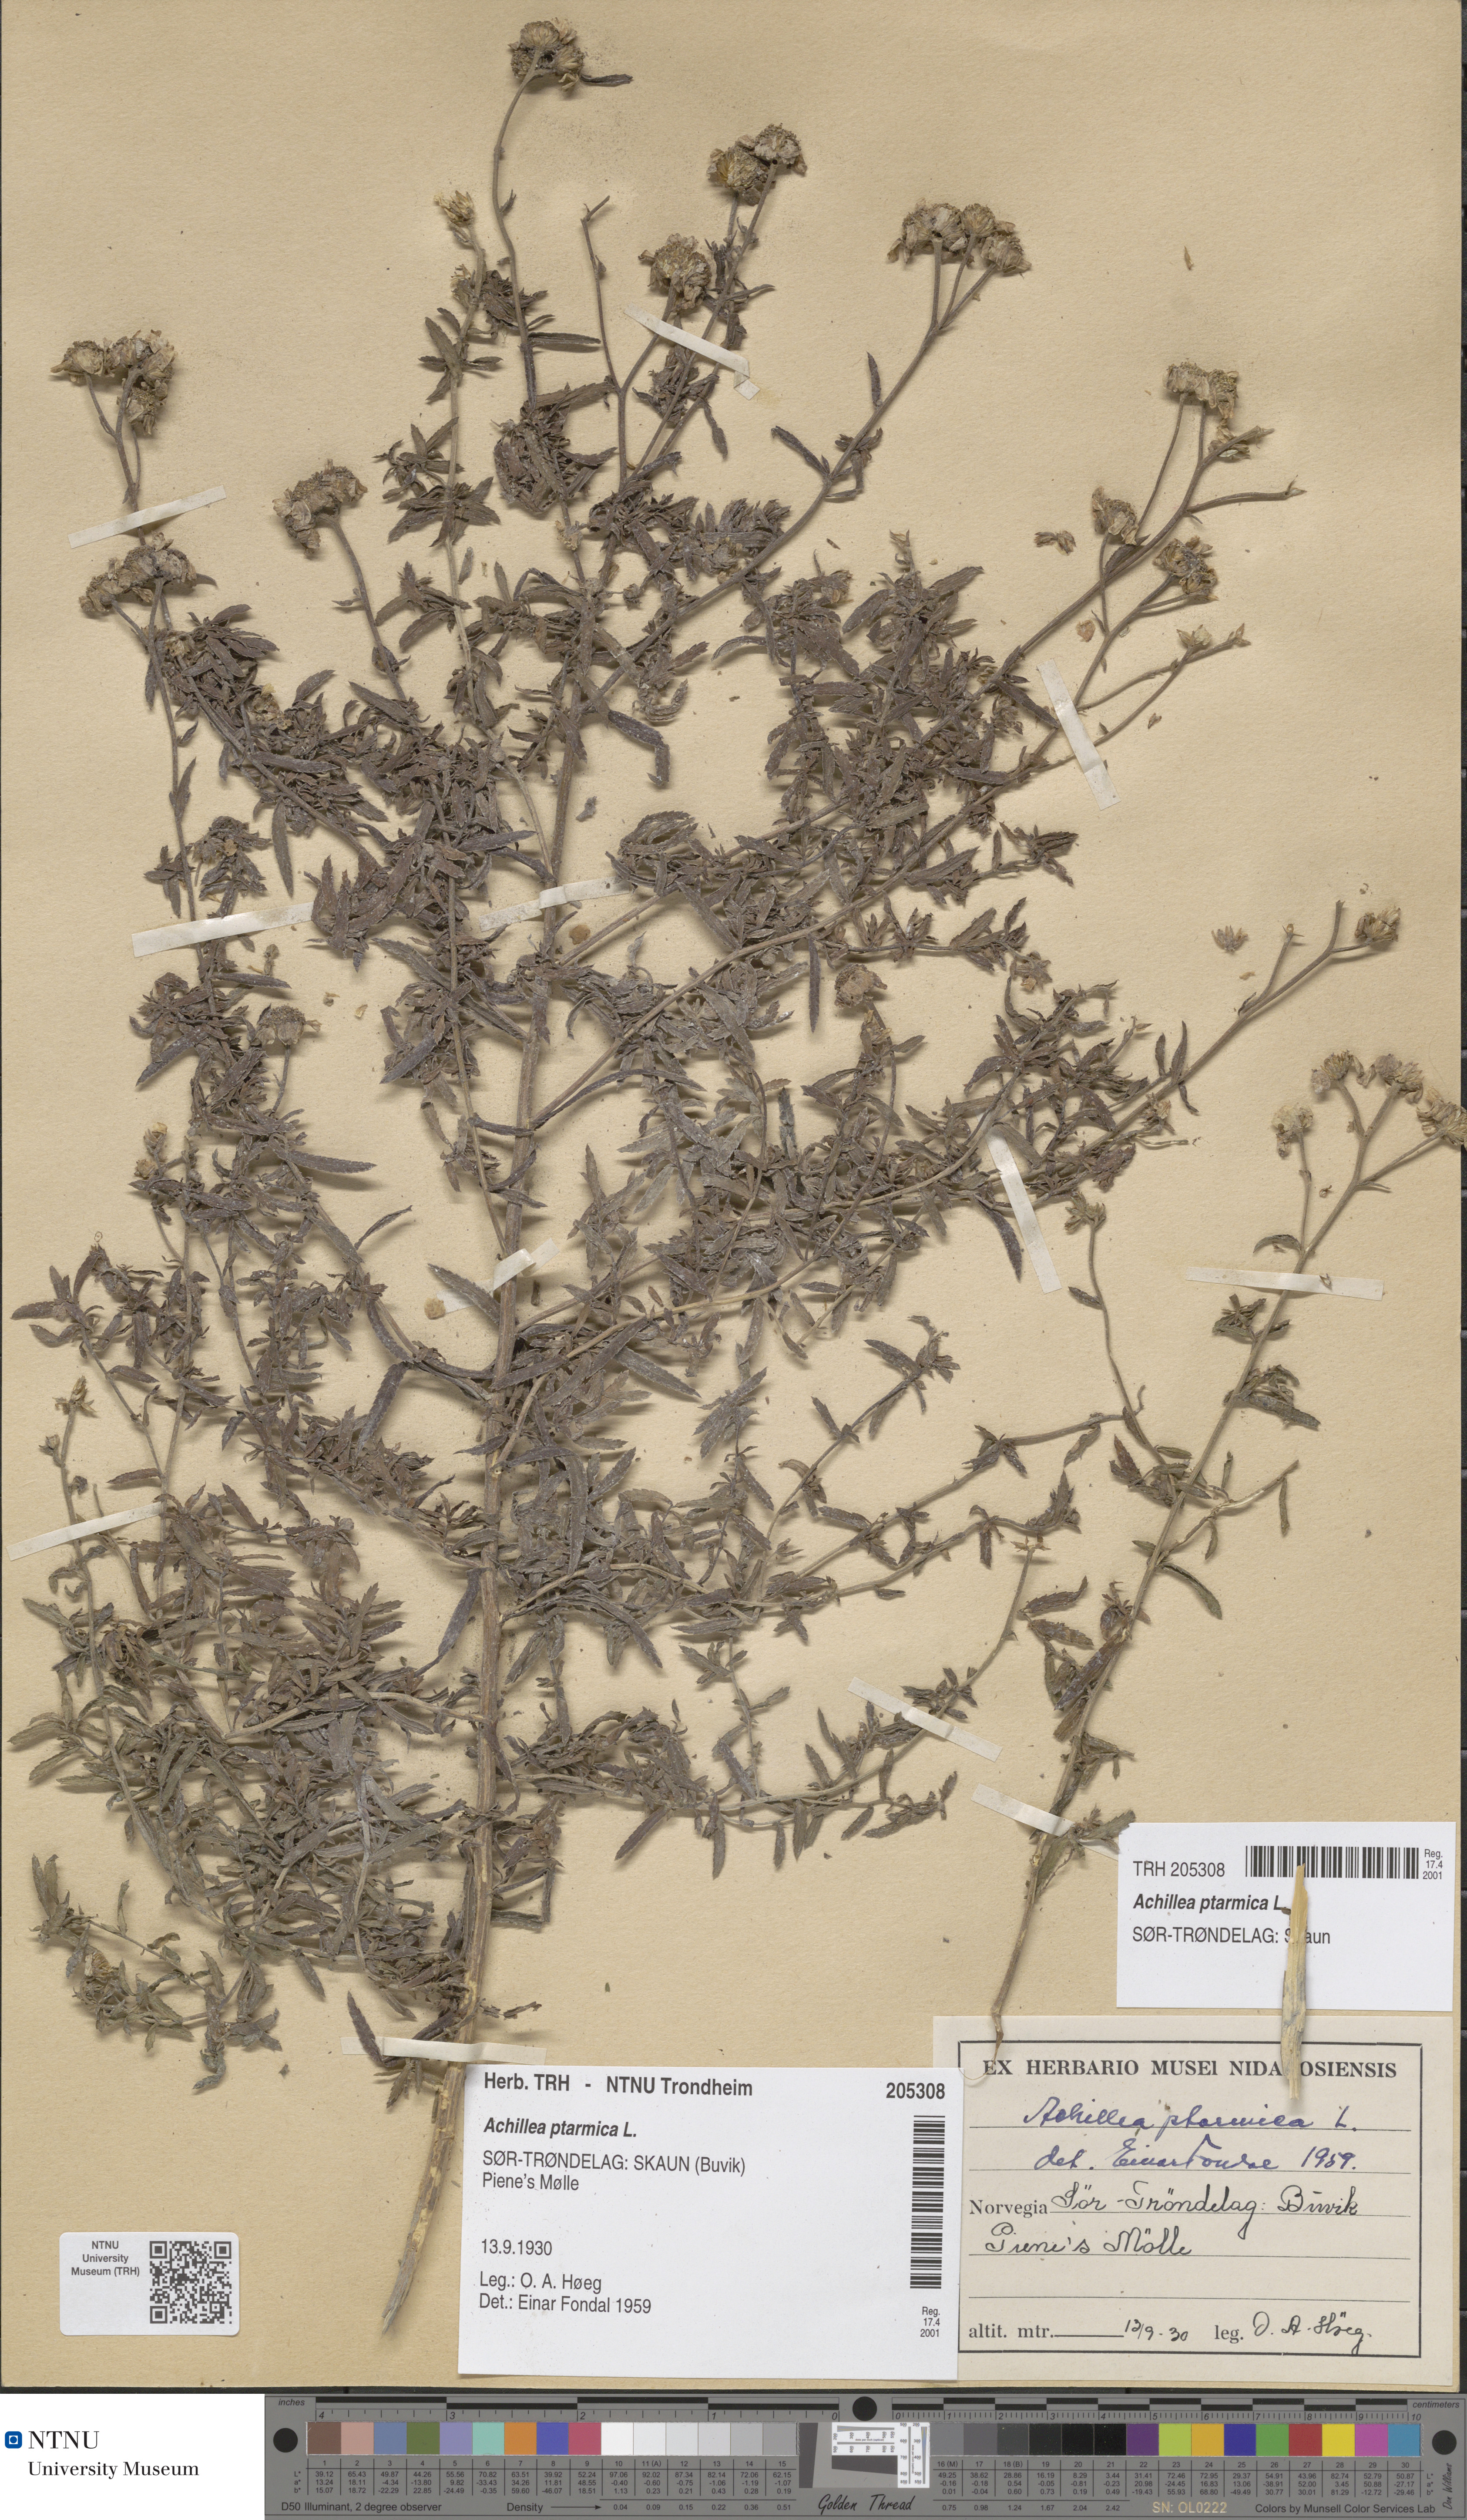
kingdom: Plantae
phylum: Tracheophyta
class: Magnoliopsida
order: Asterales
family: Asteraceae
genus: Achillea
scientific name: Achillea ptarmica
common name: Sneezeweed
